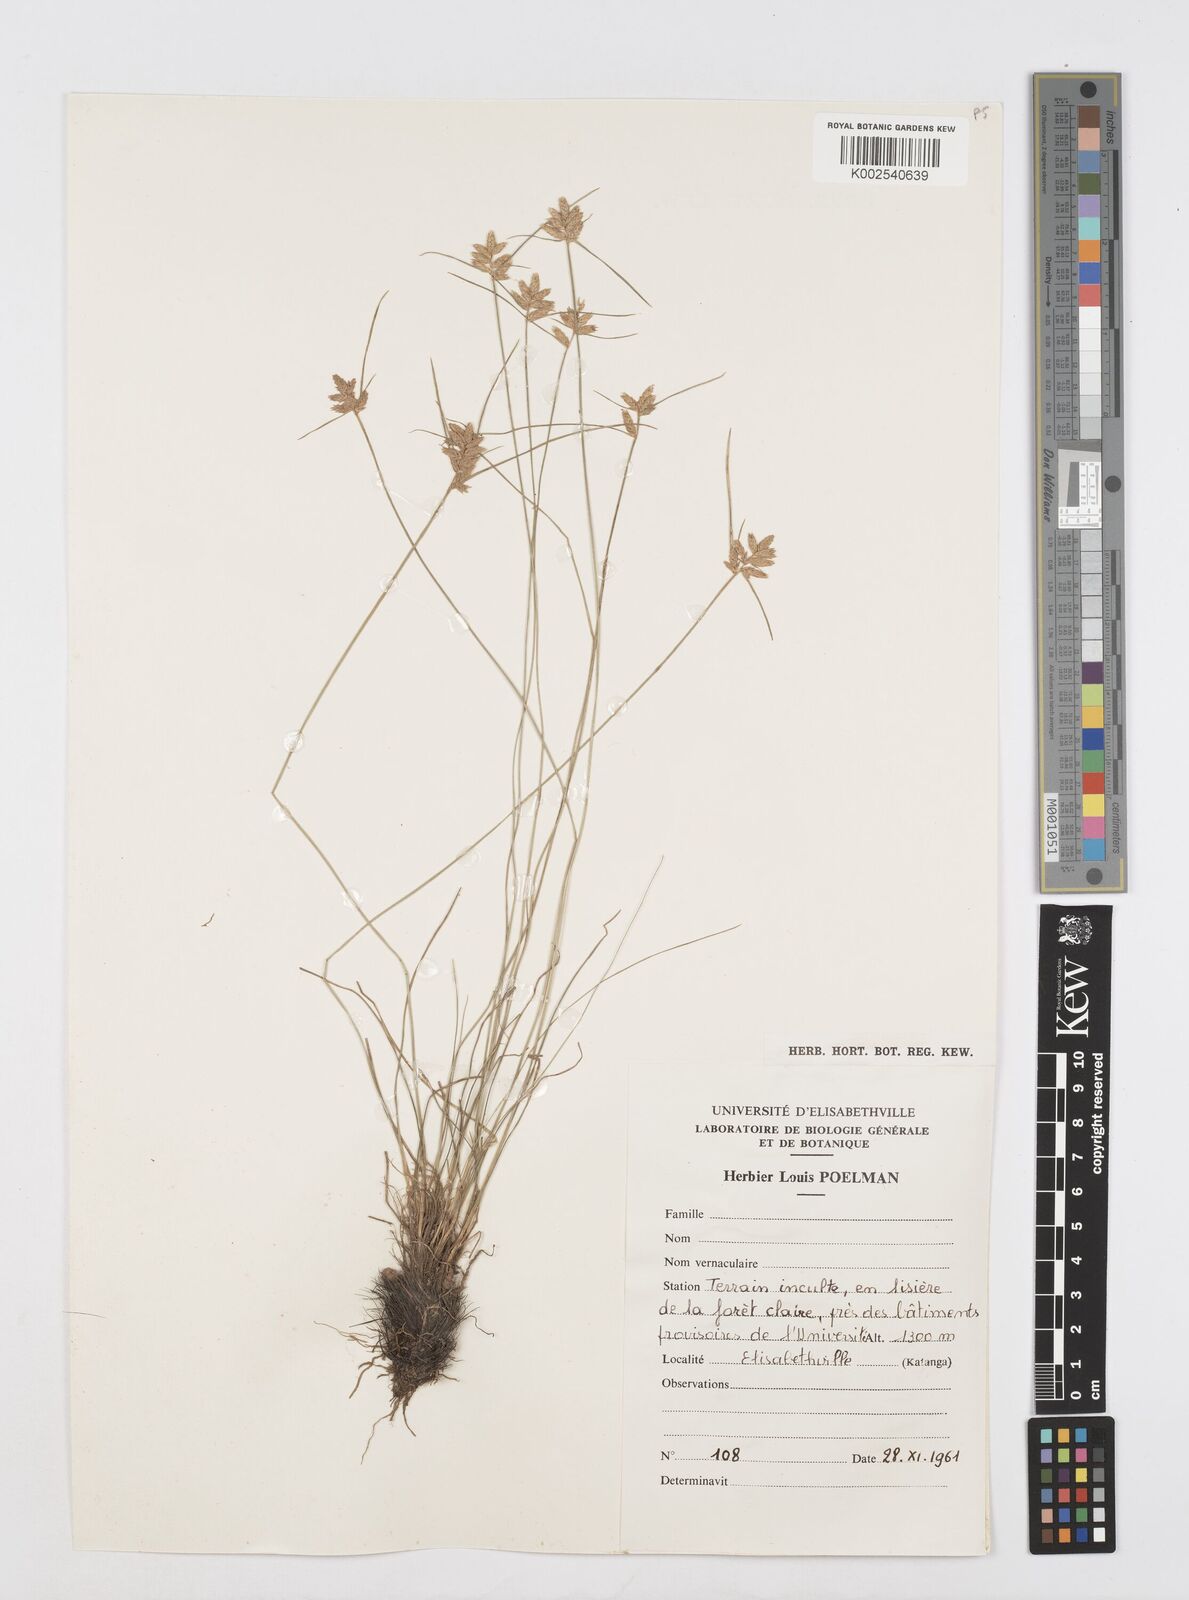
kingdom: Plantae
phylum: Tracheophyta
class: Liliopsida
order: Poales
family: Cyperaceae
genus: Cyperus
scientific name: Cyperus scaettae
